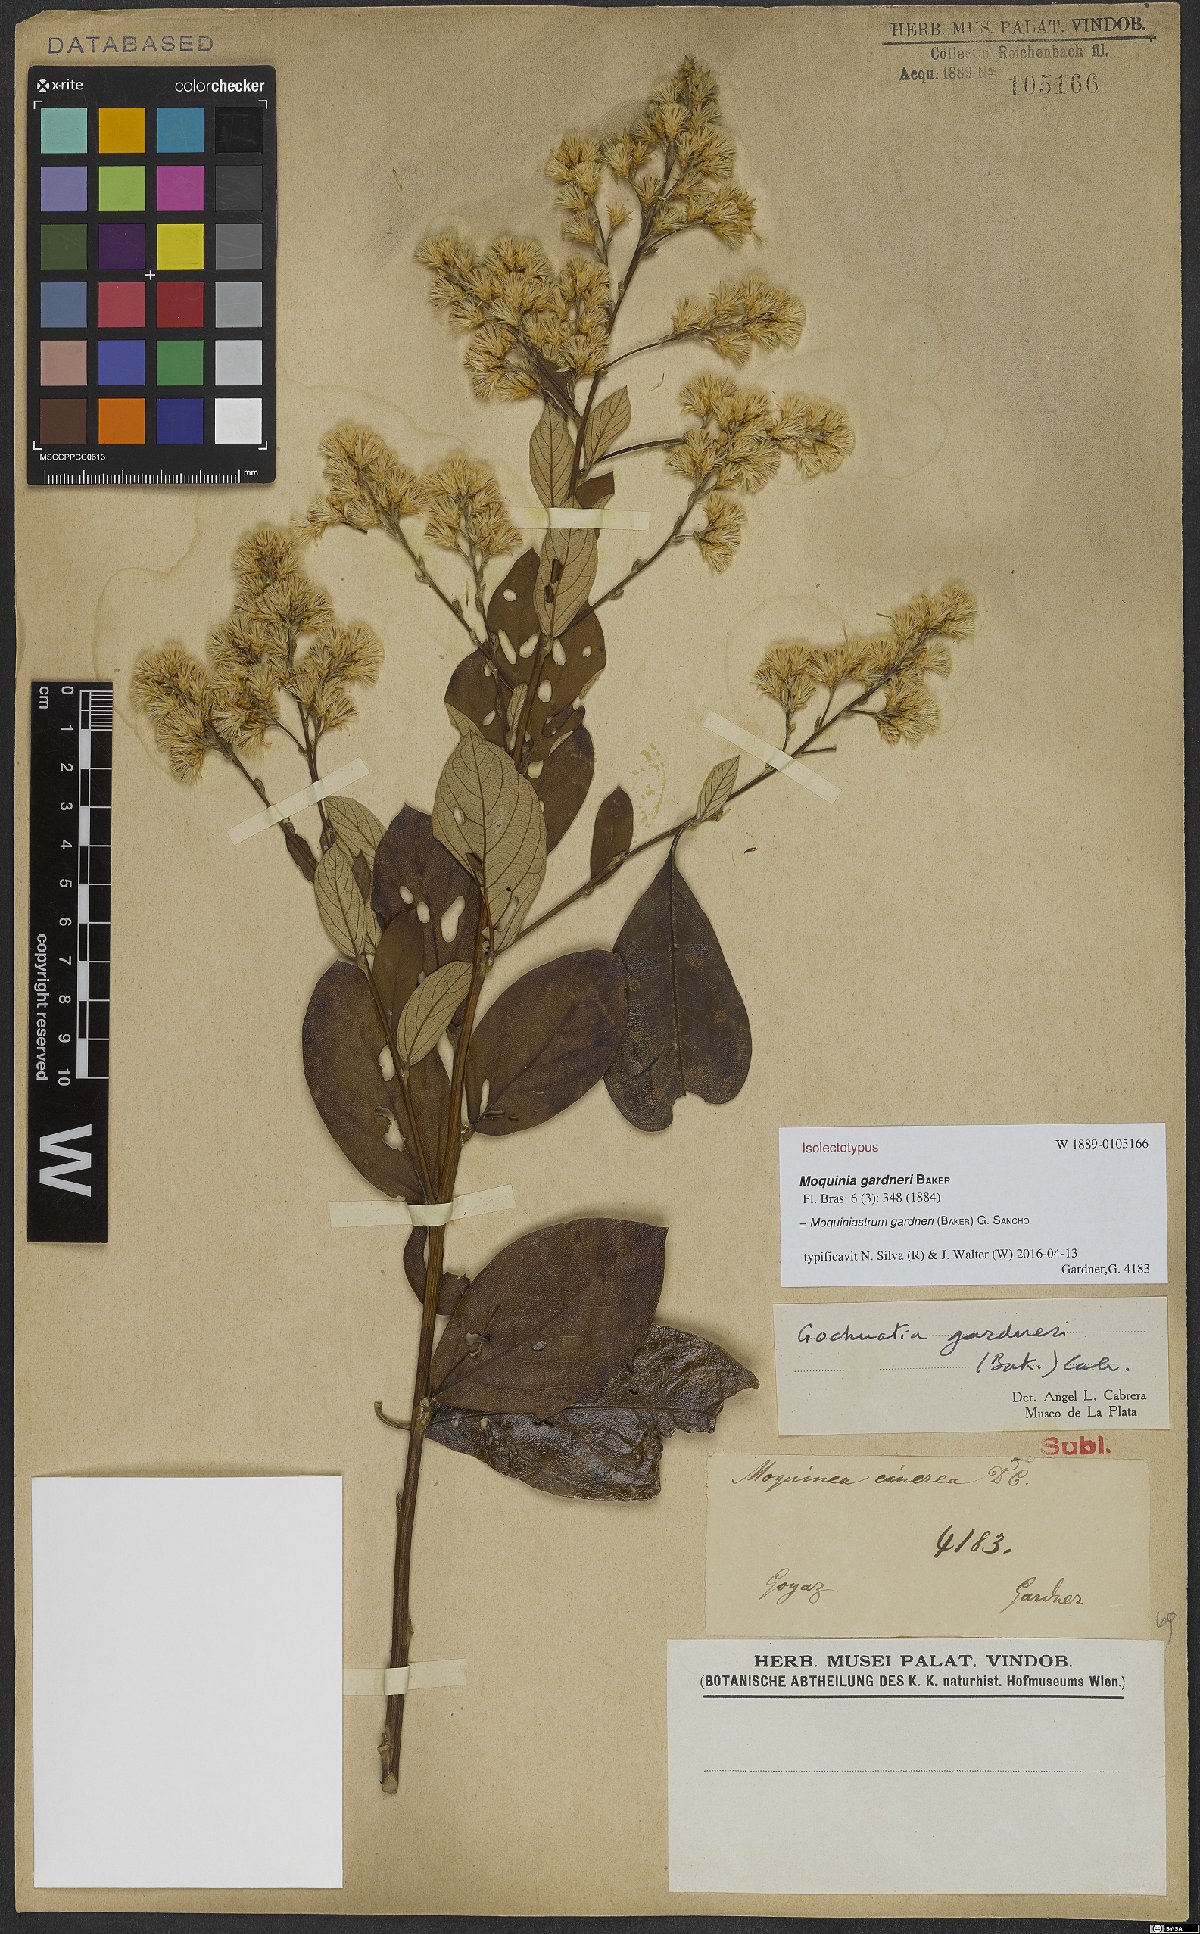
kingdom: Plantae
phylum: Tracheophyta
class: Magnoliopsida
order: Asterales
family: Asteraceae
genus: Moquiniastrum
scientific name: Moquiniastrum gardneri
